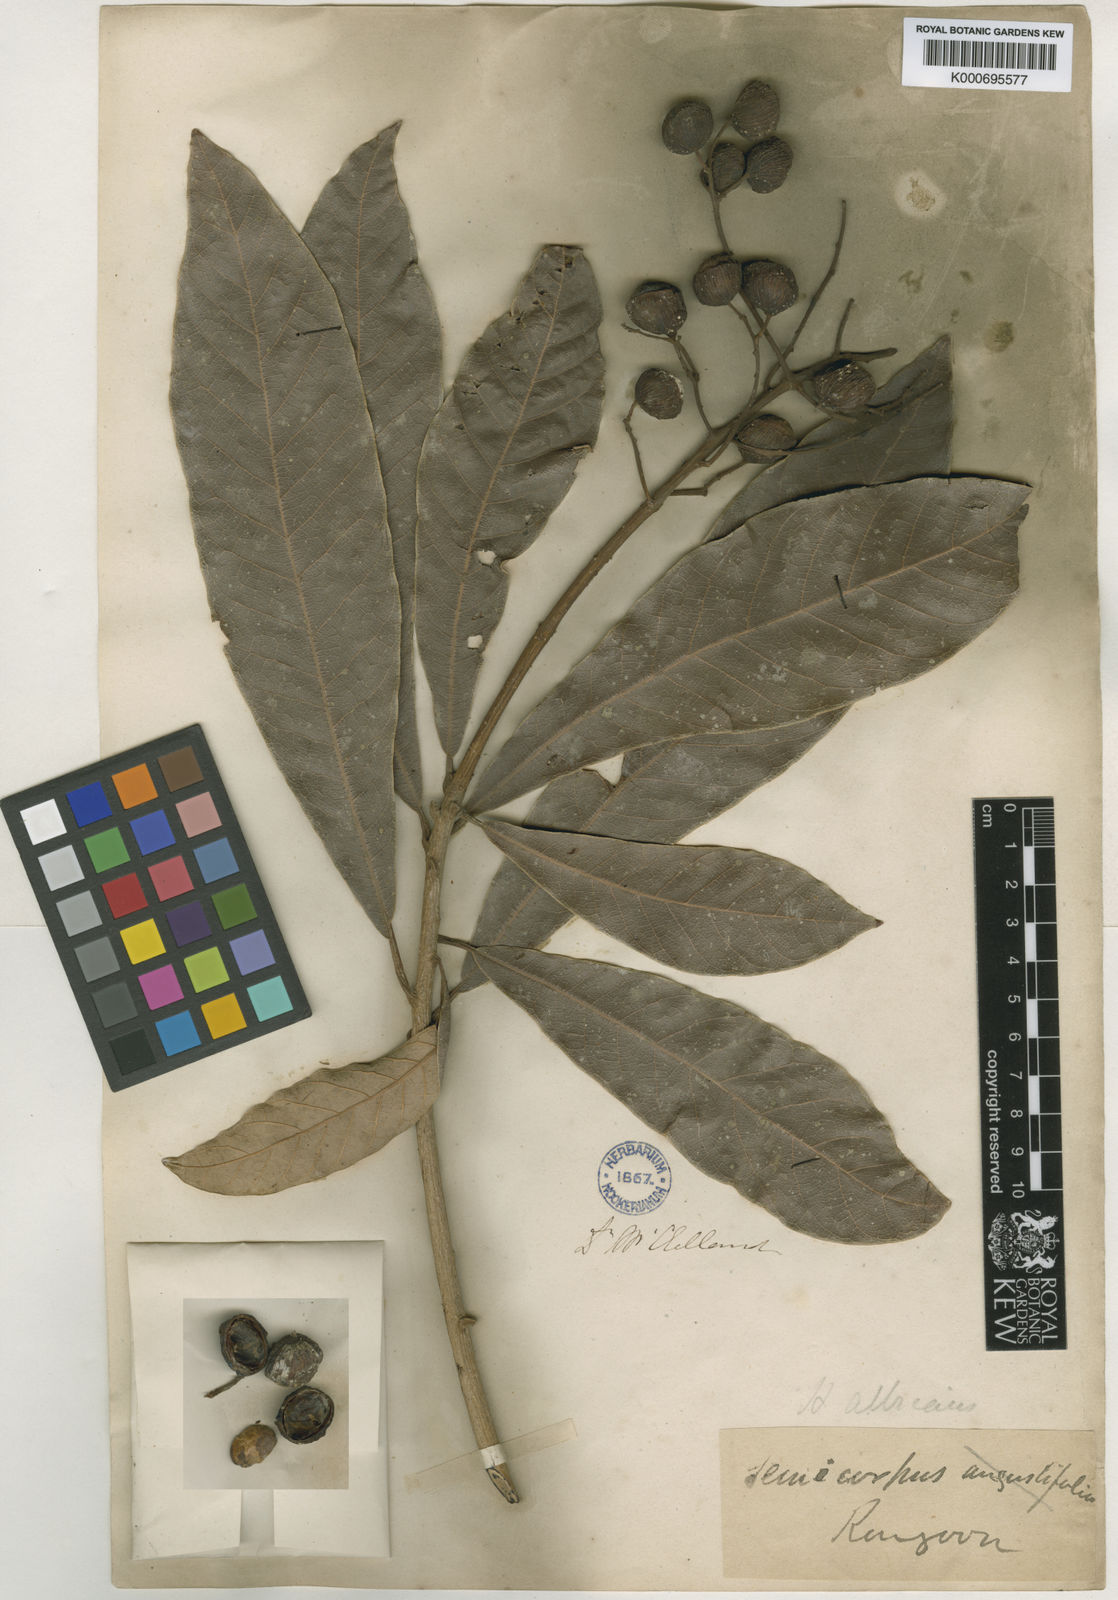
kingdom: Plantae
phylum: Tracheophyta
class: Magnoliopsida
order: Sapindales
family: Anacardiaceae
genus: Holigarna
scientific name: Holigarna albicans
